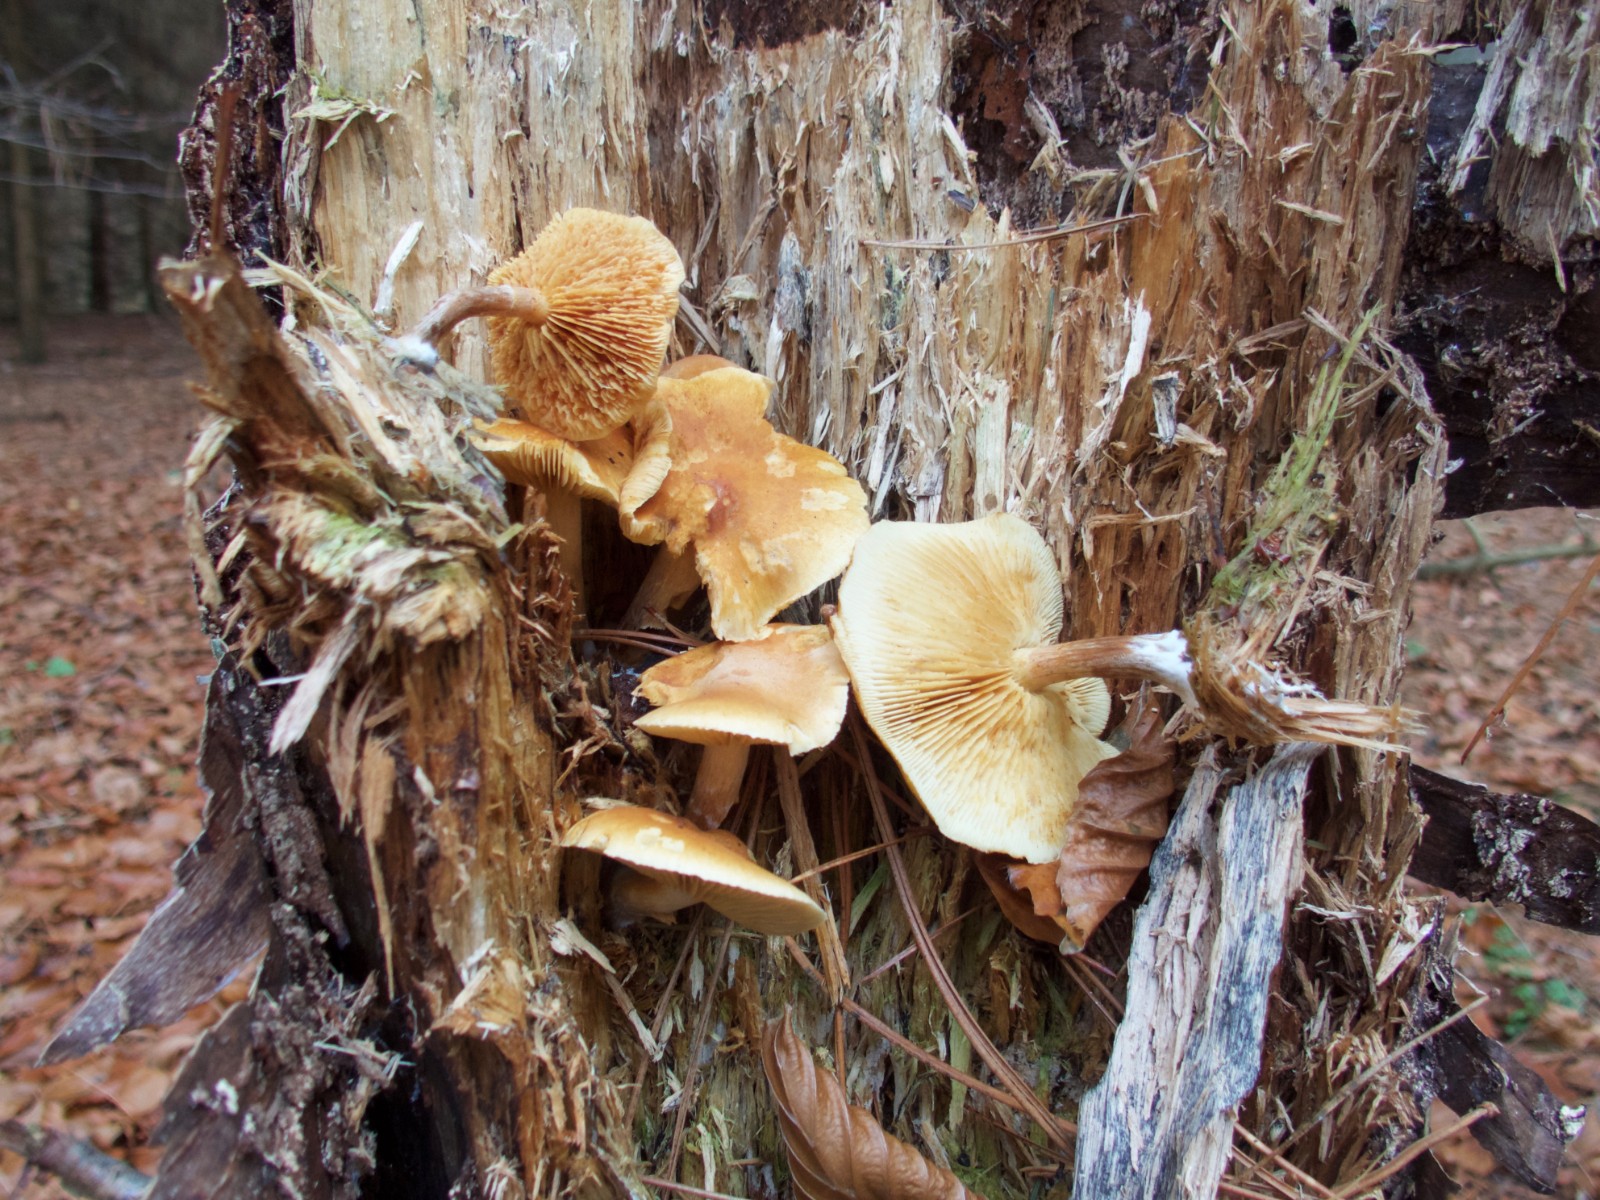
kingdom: Fungi
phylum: Basidiomycota
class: Agaricomycetes
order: Agaricales
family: Hymenogastraceae
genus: Gymnopilus
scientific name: Gymnopilus penetrans
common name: plettet flammehat
